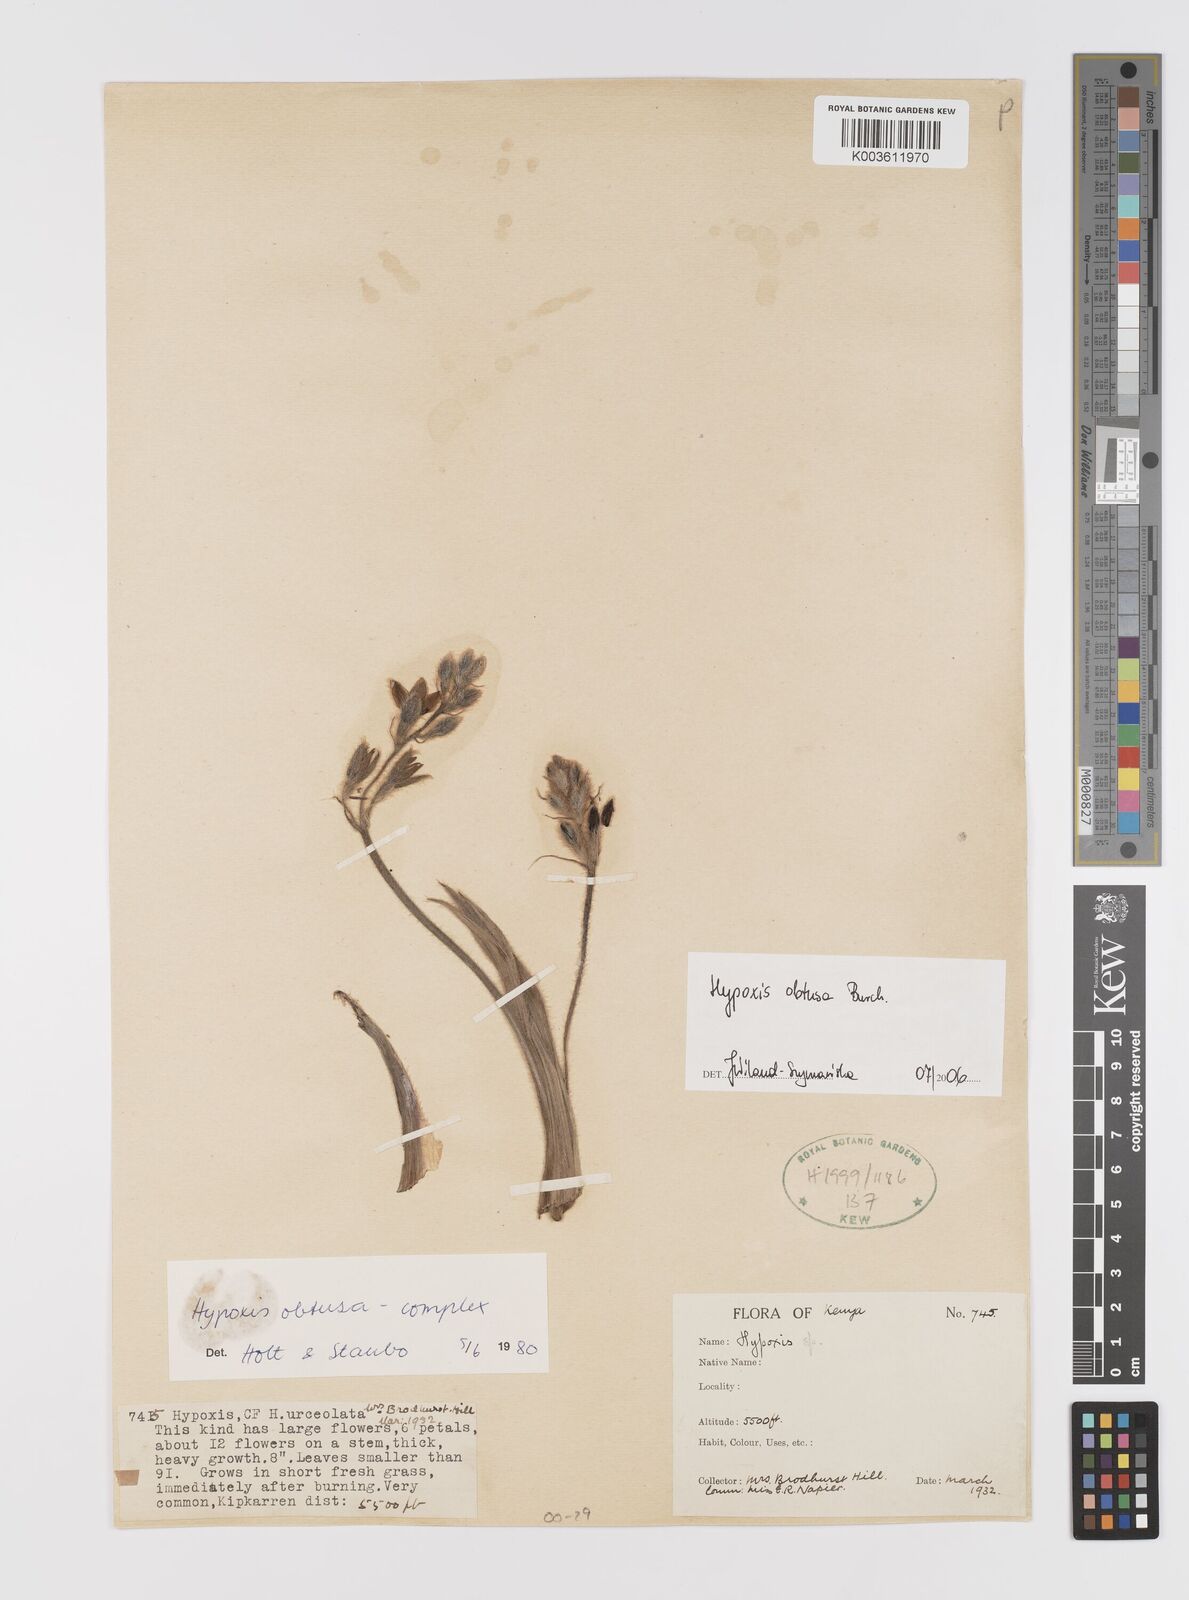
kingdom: Plantae
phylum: Tracheophyta
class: Liliopsida
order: Asparagales
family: Hypoxidaceae
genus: Hypoxis
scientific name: Hypoxis obtusa
